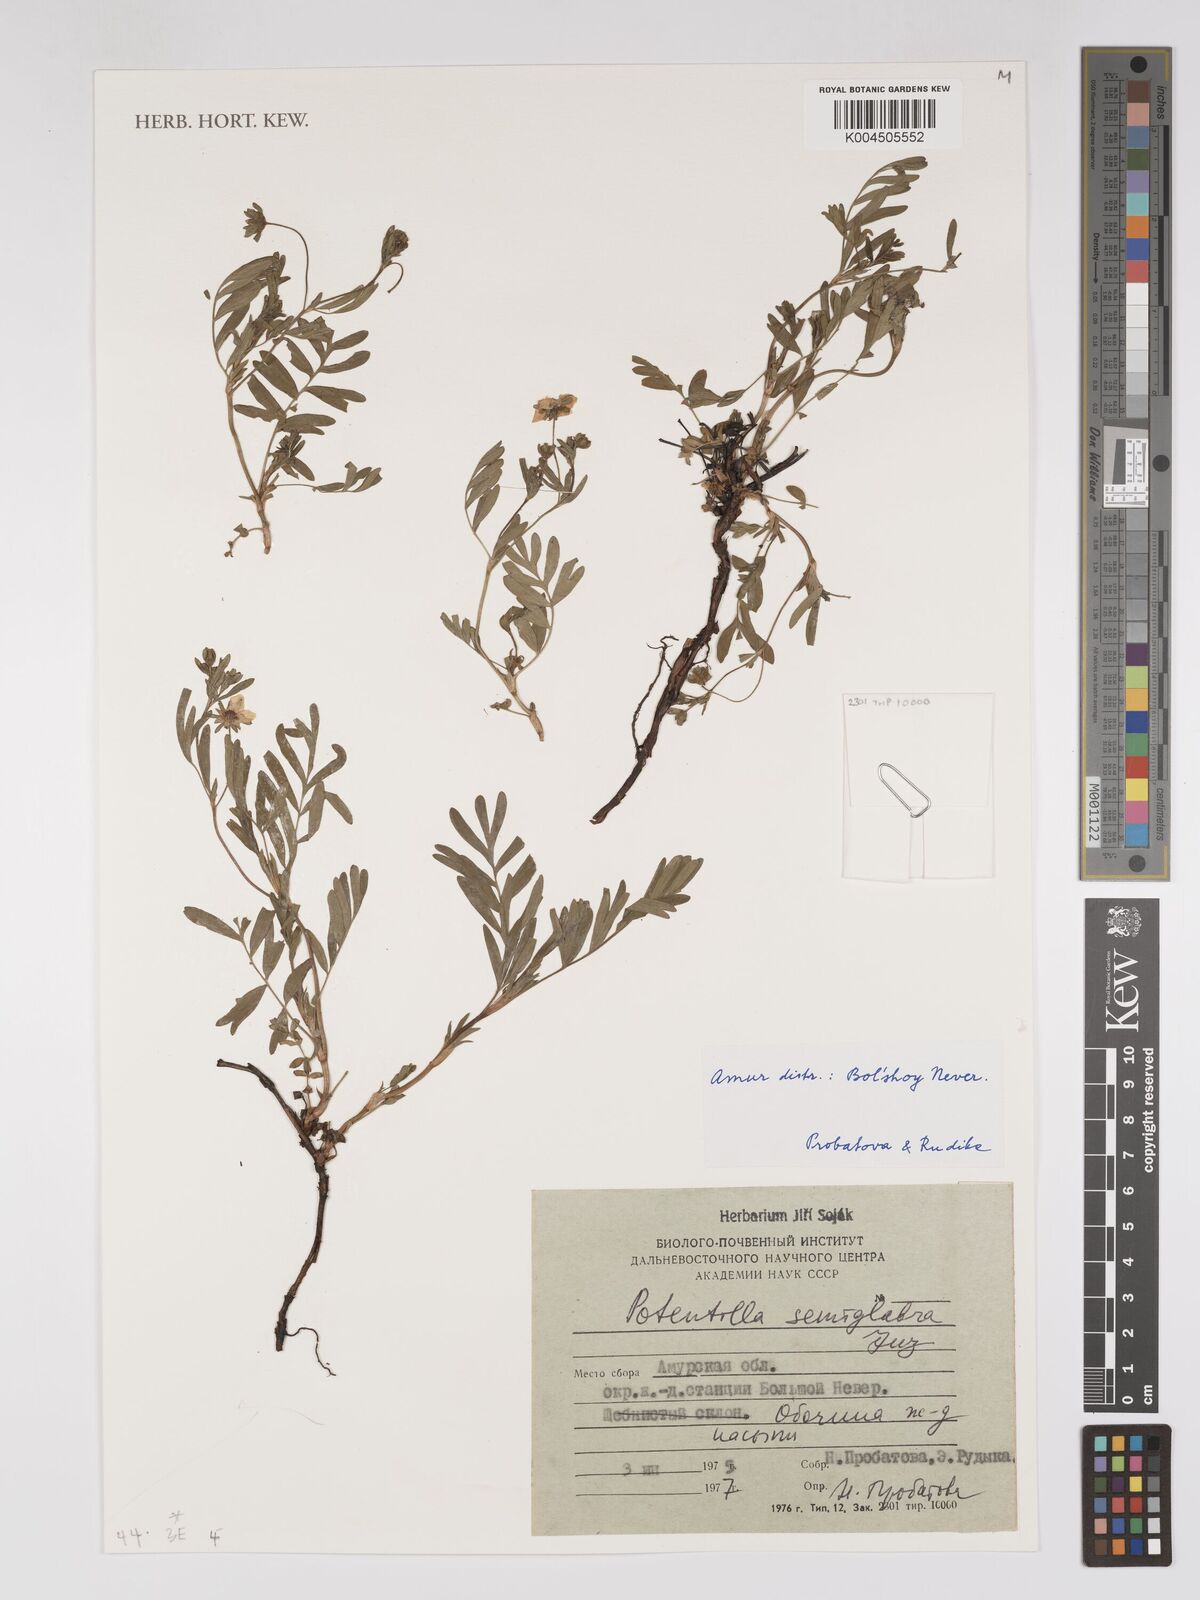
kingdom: Plantae
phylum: Tracheophyta
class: Magnoliopsida
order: Rosales
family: Rosaceae
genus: Sibbaldianthe
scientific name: Sibbaldianthe semiglabra
